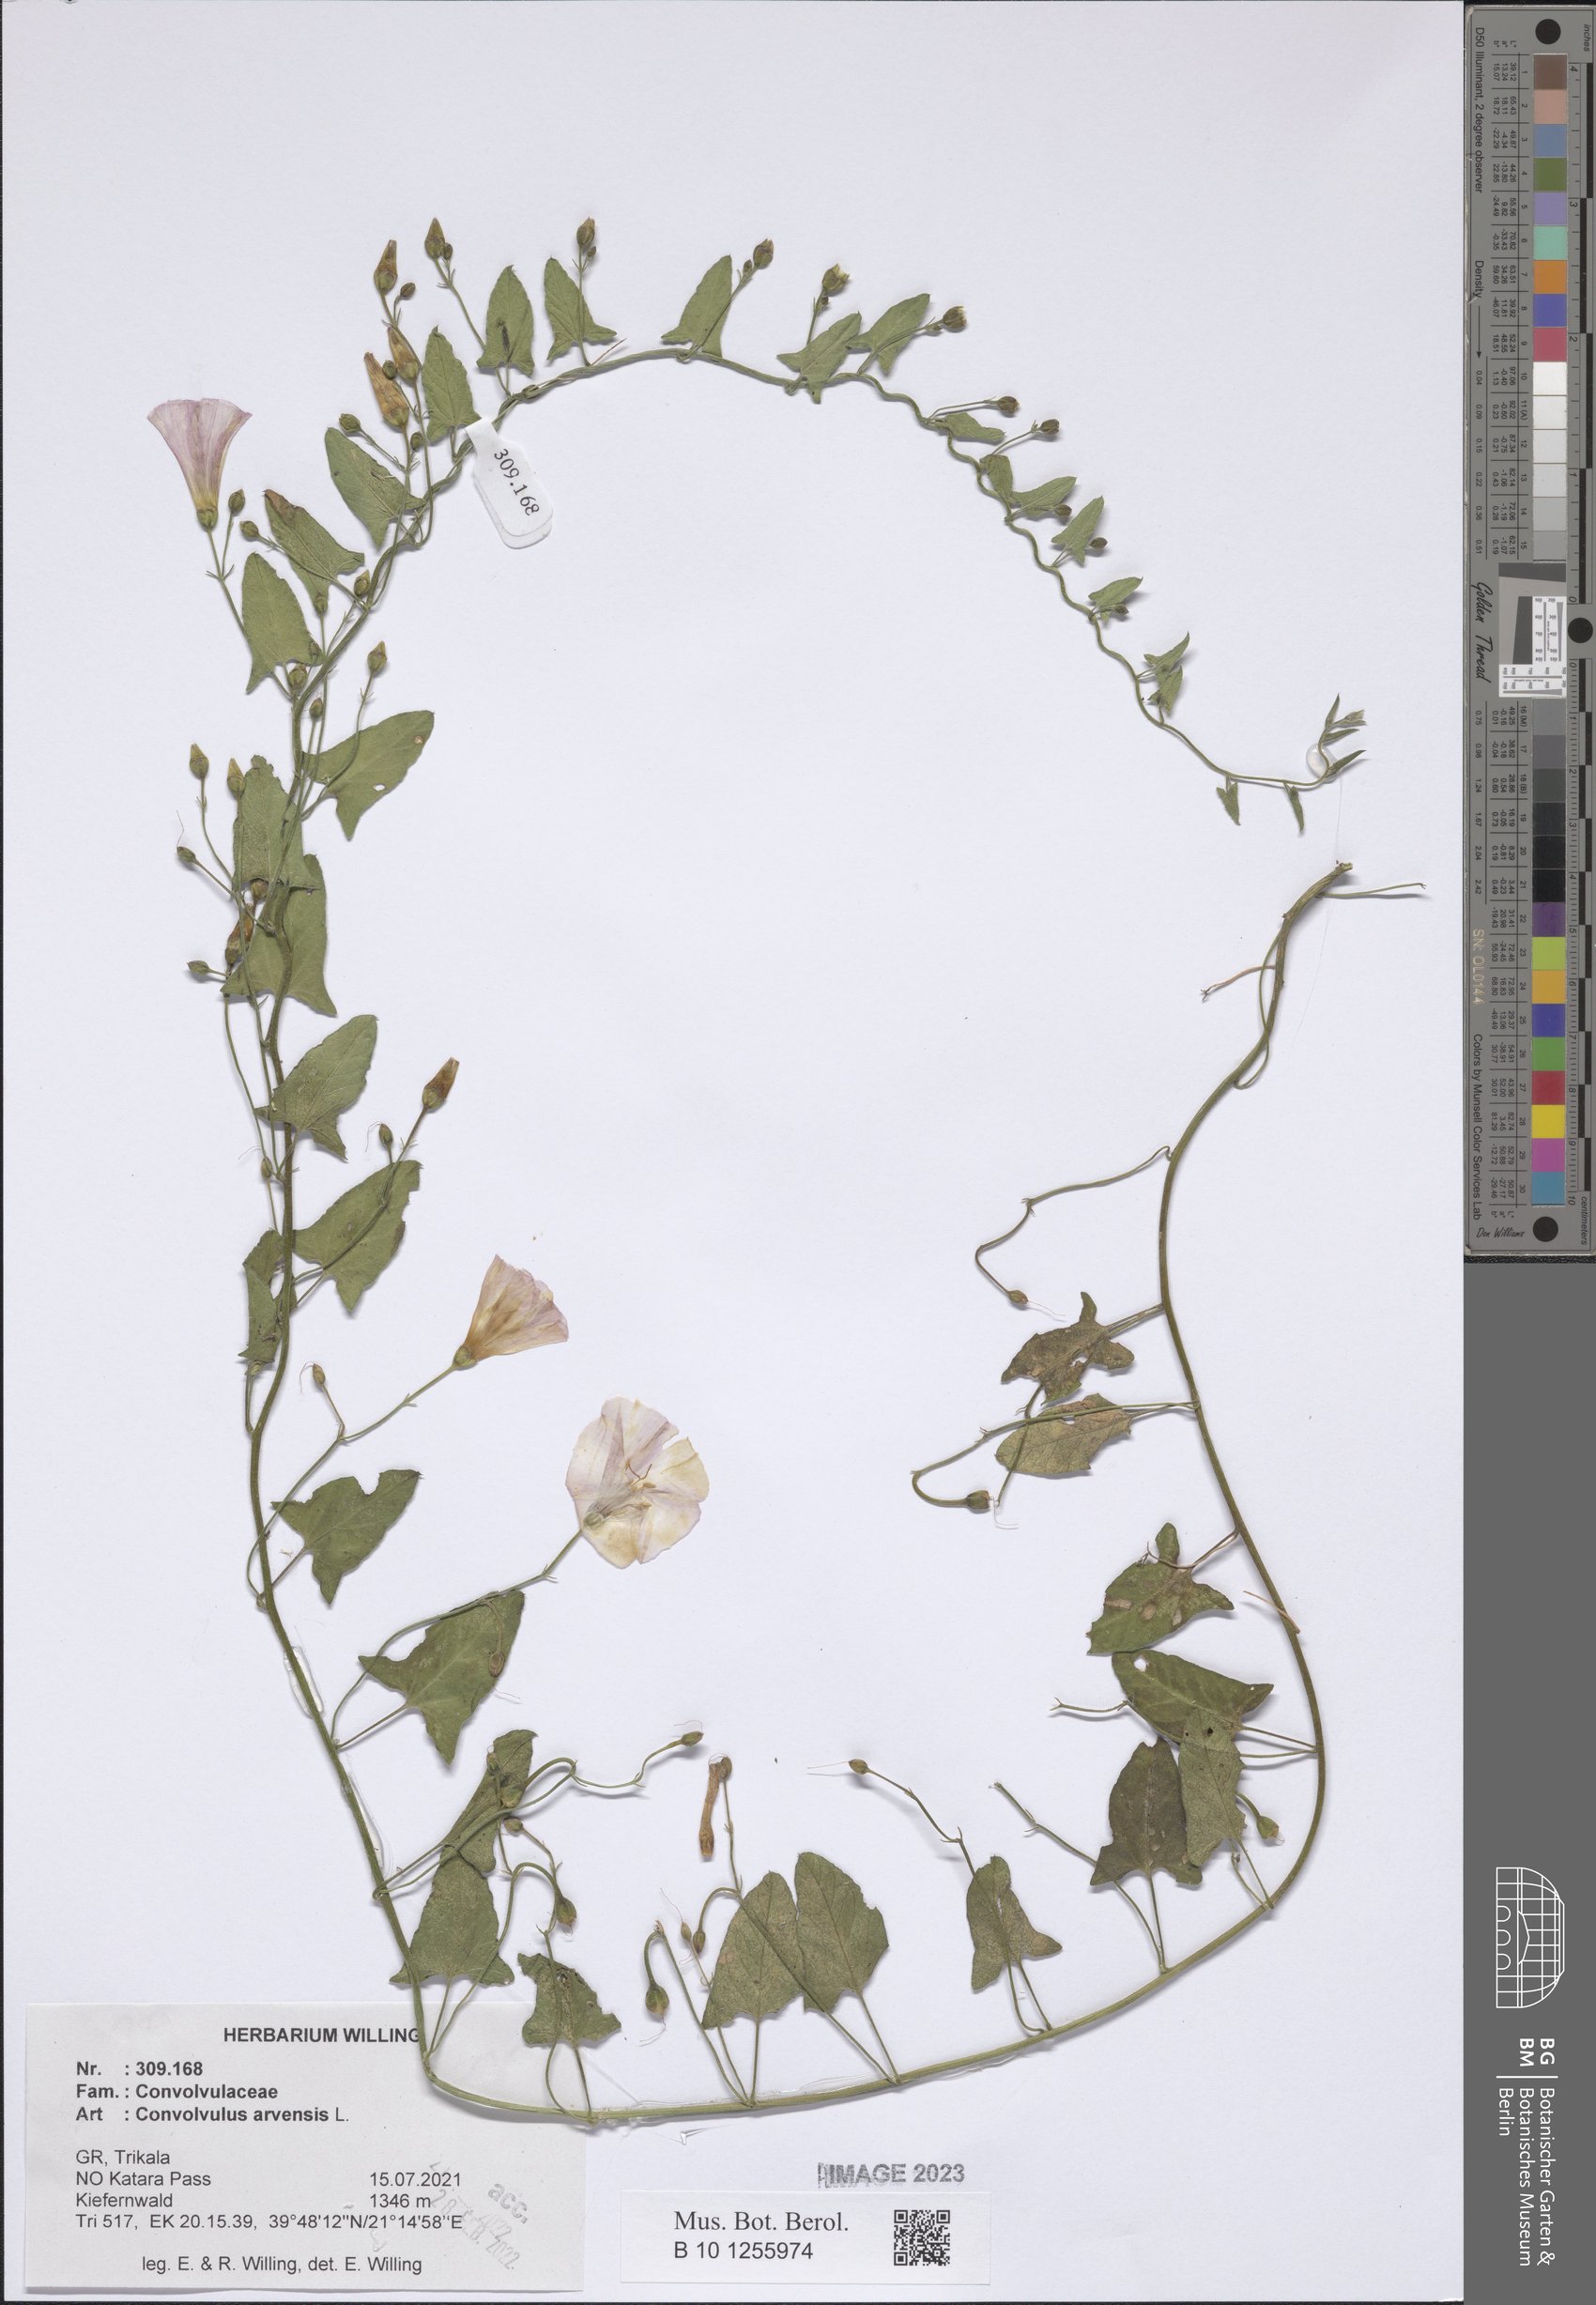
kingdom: Plantae
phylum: Tracheophyta
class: Magnoliopsida
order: Solanales
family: Convolvulaceae
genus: Convolvulus
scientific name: Convolvulus arvensis
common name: Field bindweed
